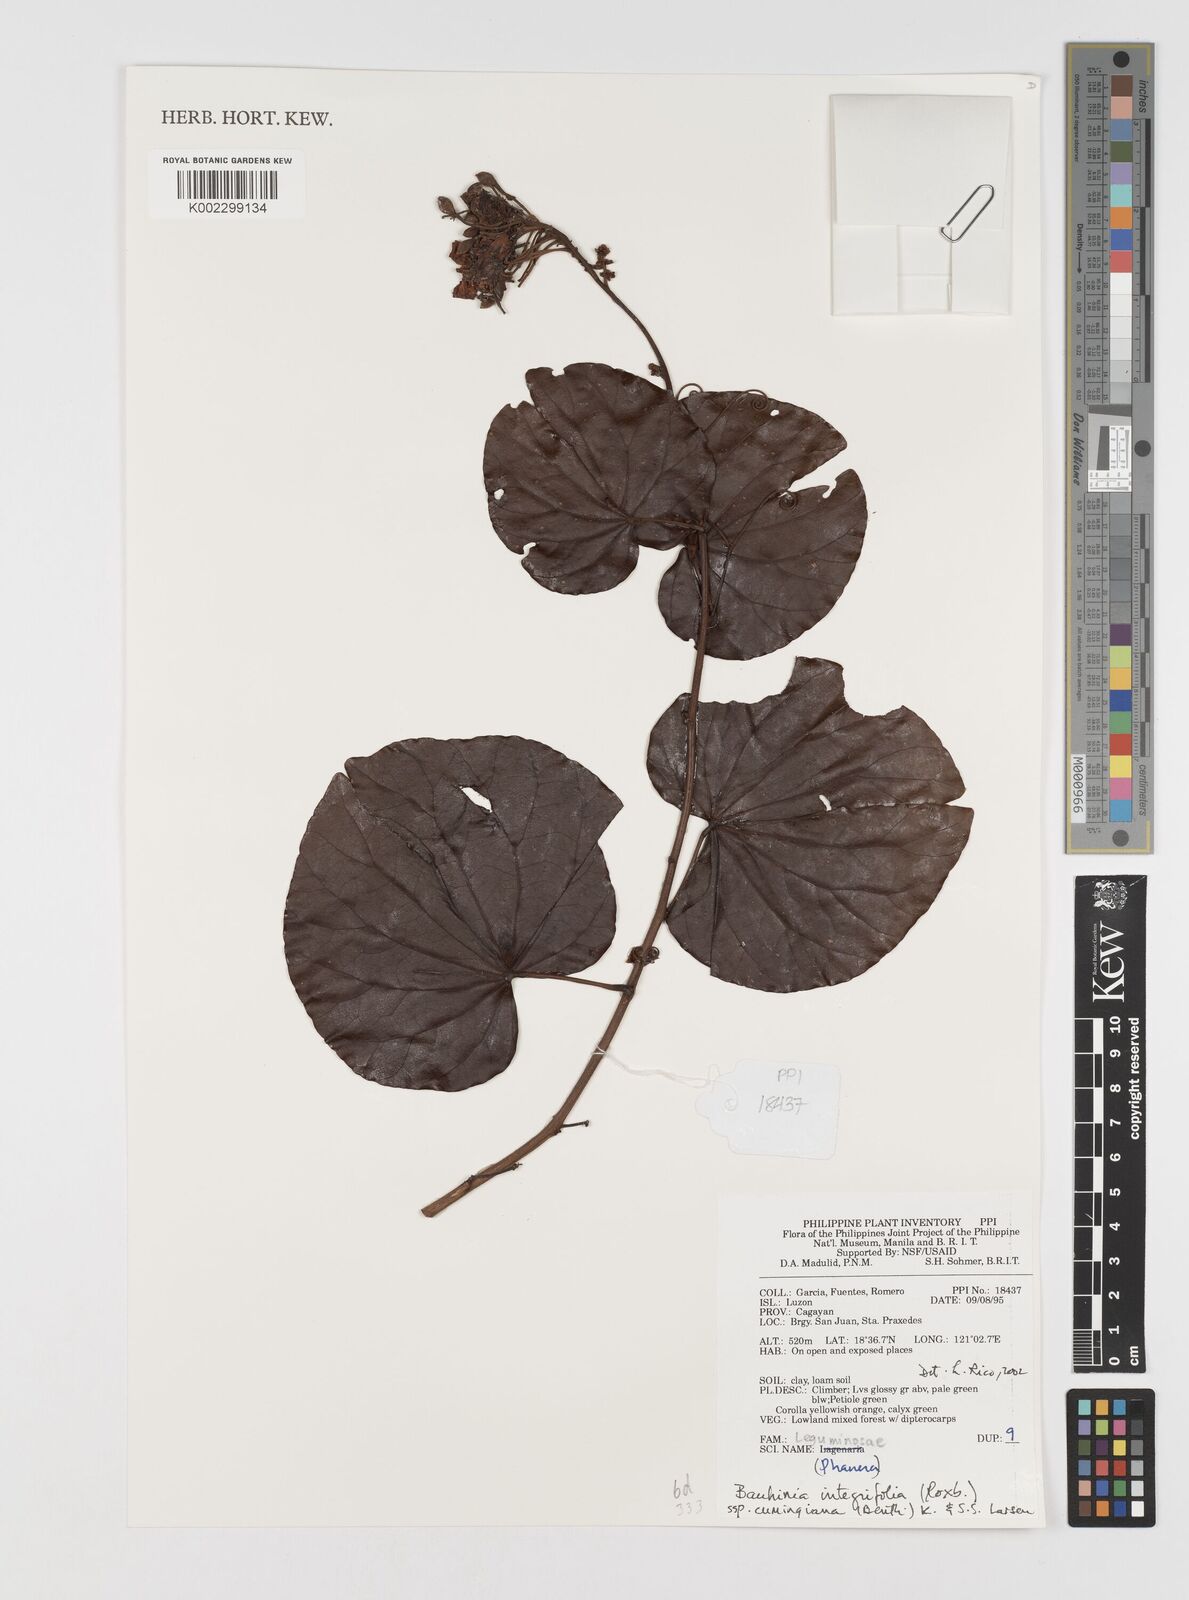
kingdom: Plantae
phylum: Tracheophyta
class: Magnoliopsida
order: Fabales
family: Fabaceae
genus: Phanera
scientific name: Phanera integrifolia
